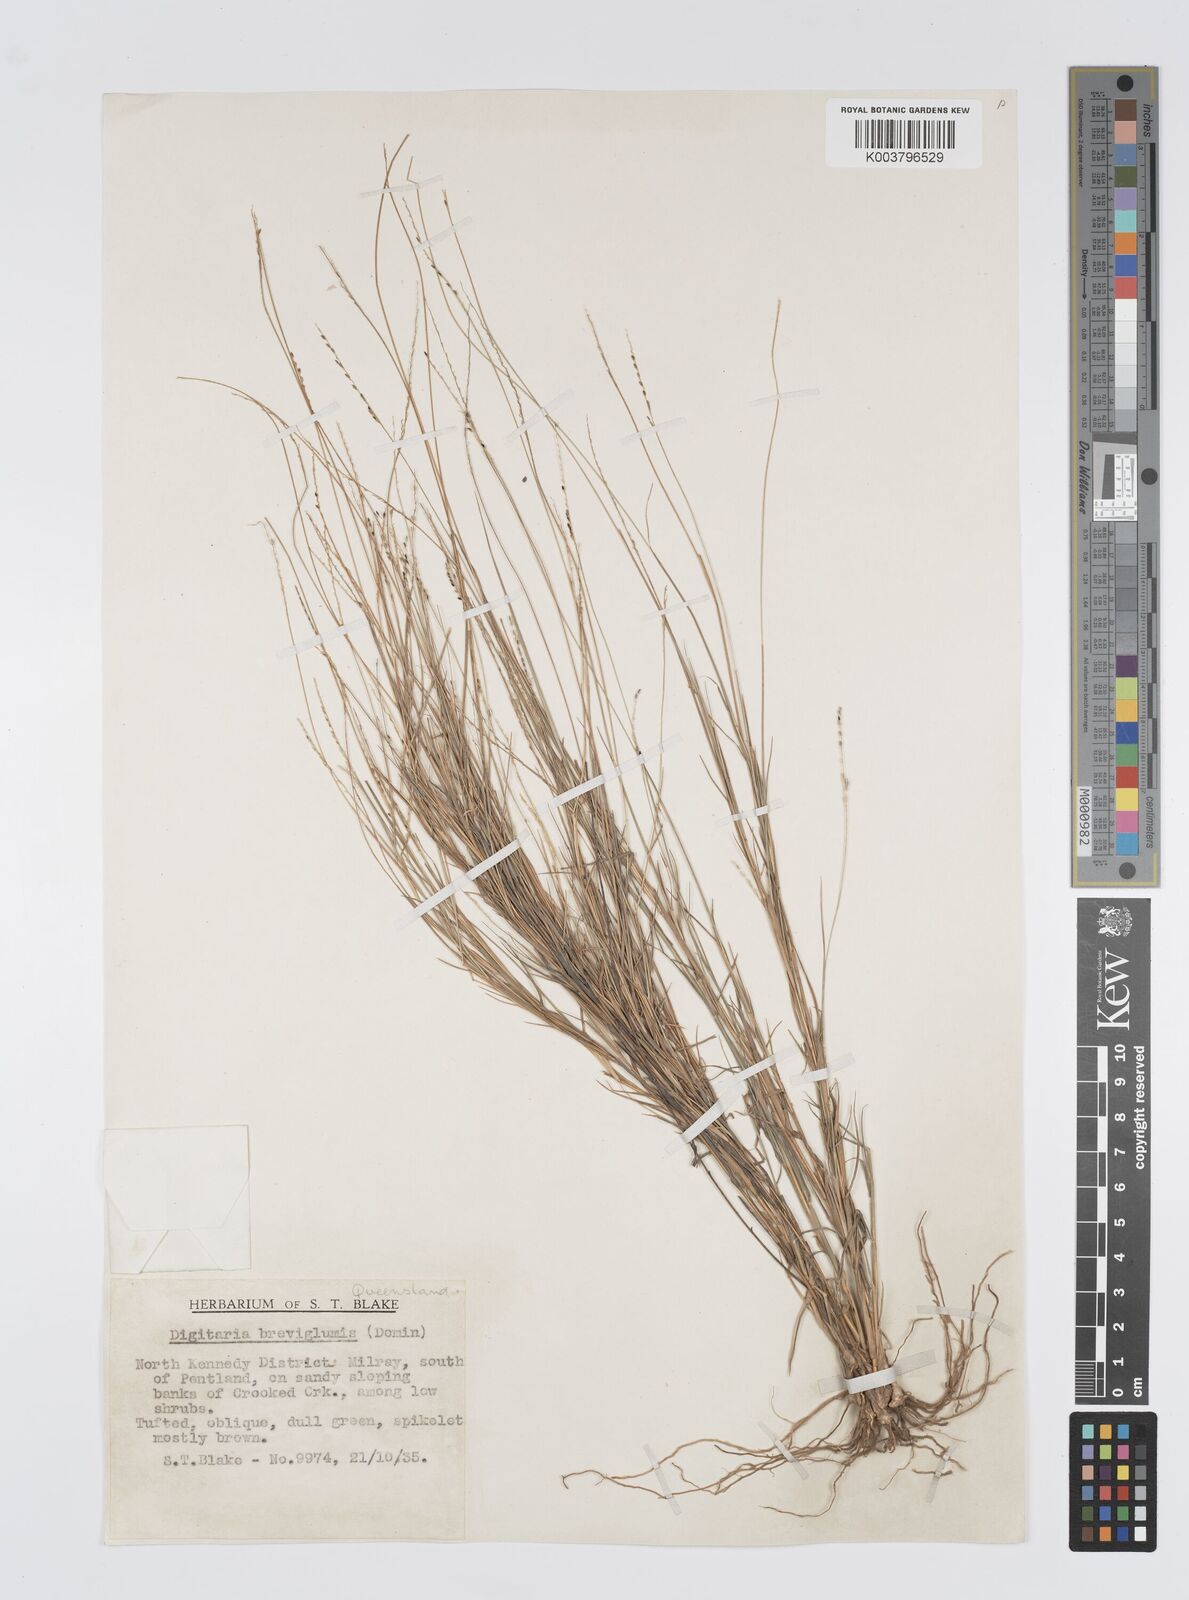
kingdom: Plantae
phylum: Tracheophyta
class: Liliopsida
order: Poales
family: Poaceae
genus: Digitaria
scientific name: Digitaria breviglumis
